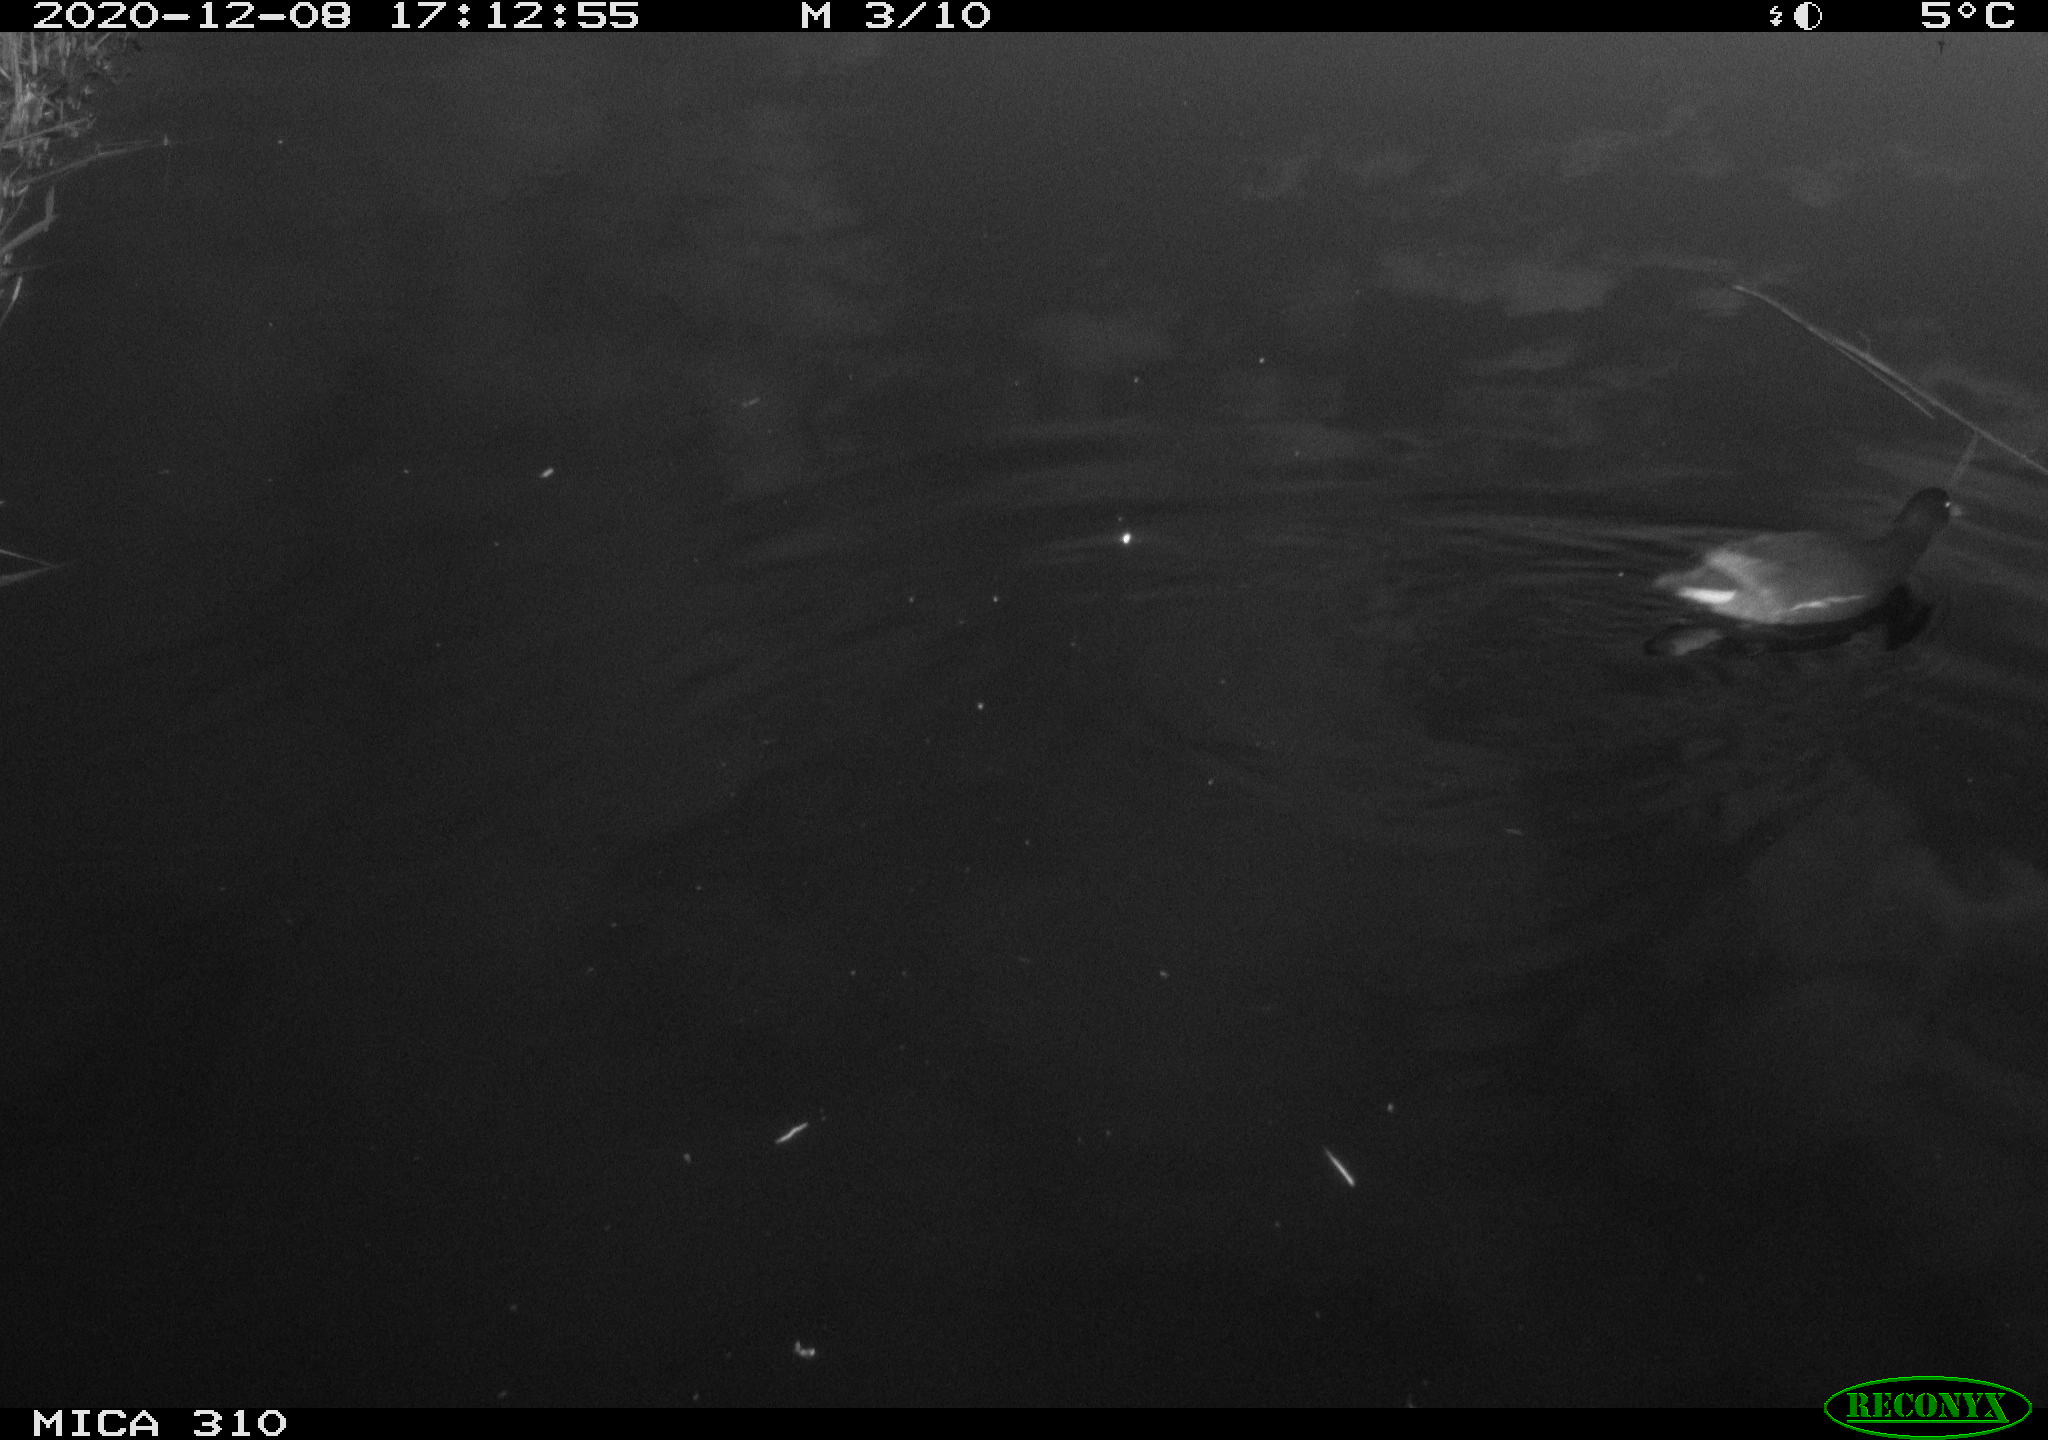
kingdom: Animalia
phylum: Chordata
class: Aves
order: Gruiformes
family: Rallidae
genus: Gallinula
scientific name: Gallinula chloropus
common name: Common moorhen
